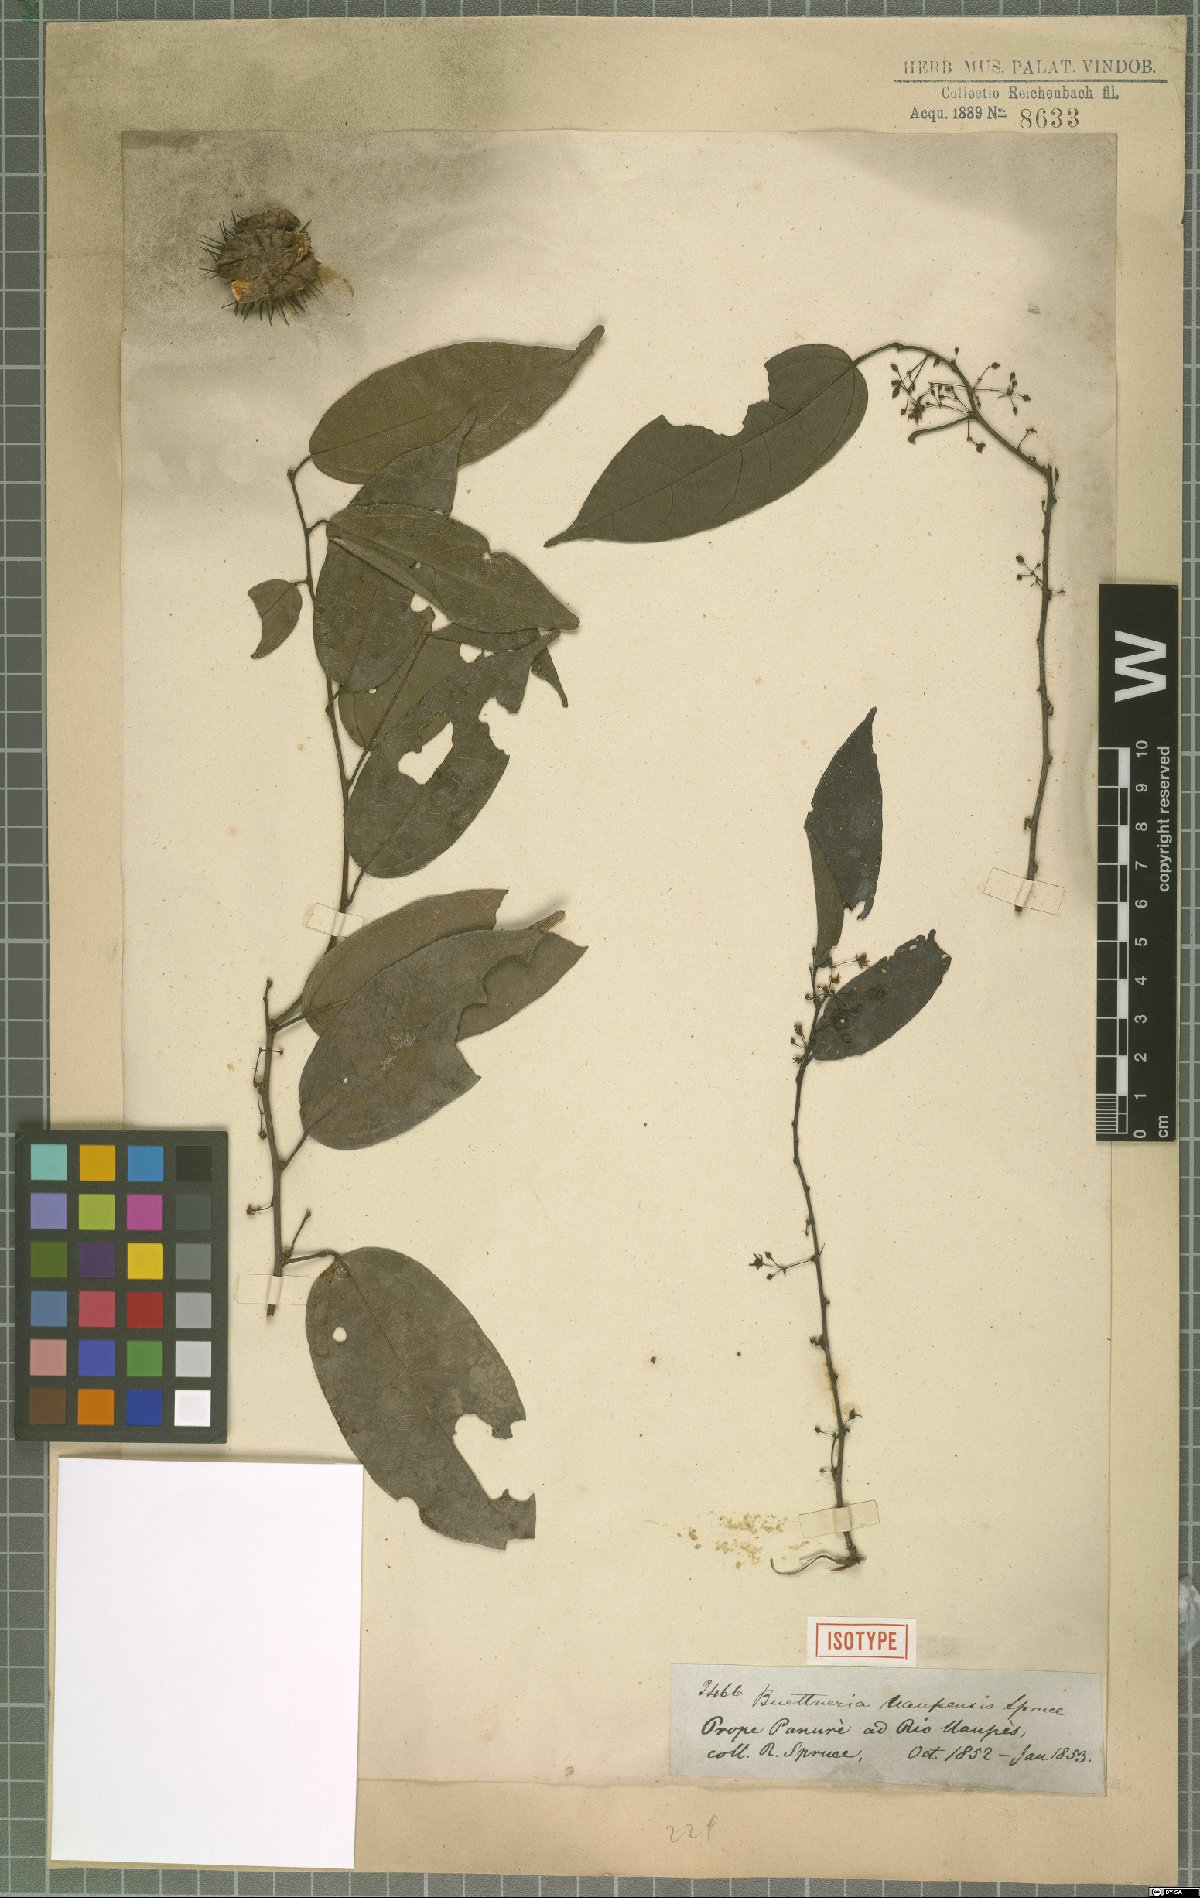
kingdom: Plantae
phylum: Tracheophyta
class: Magnoliopsida
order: Malvales
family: Malvaceae
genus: Byttneria
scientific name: Byttneria uaupensis
